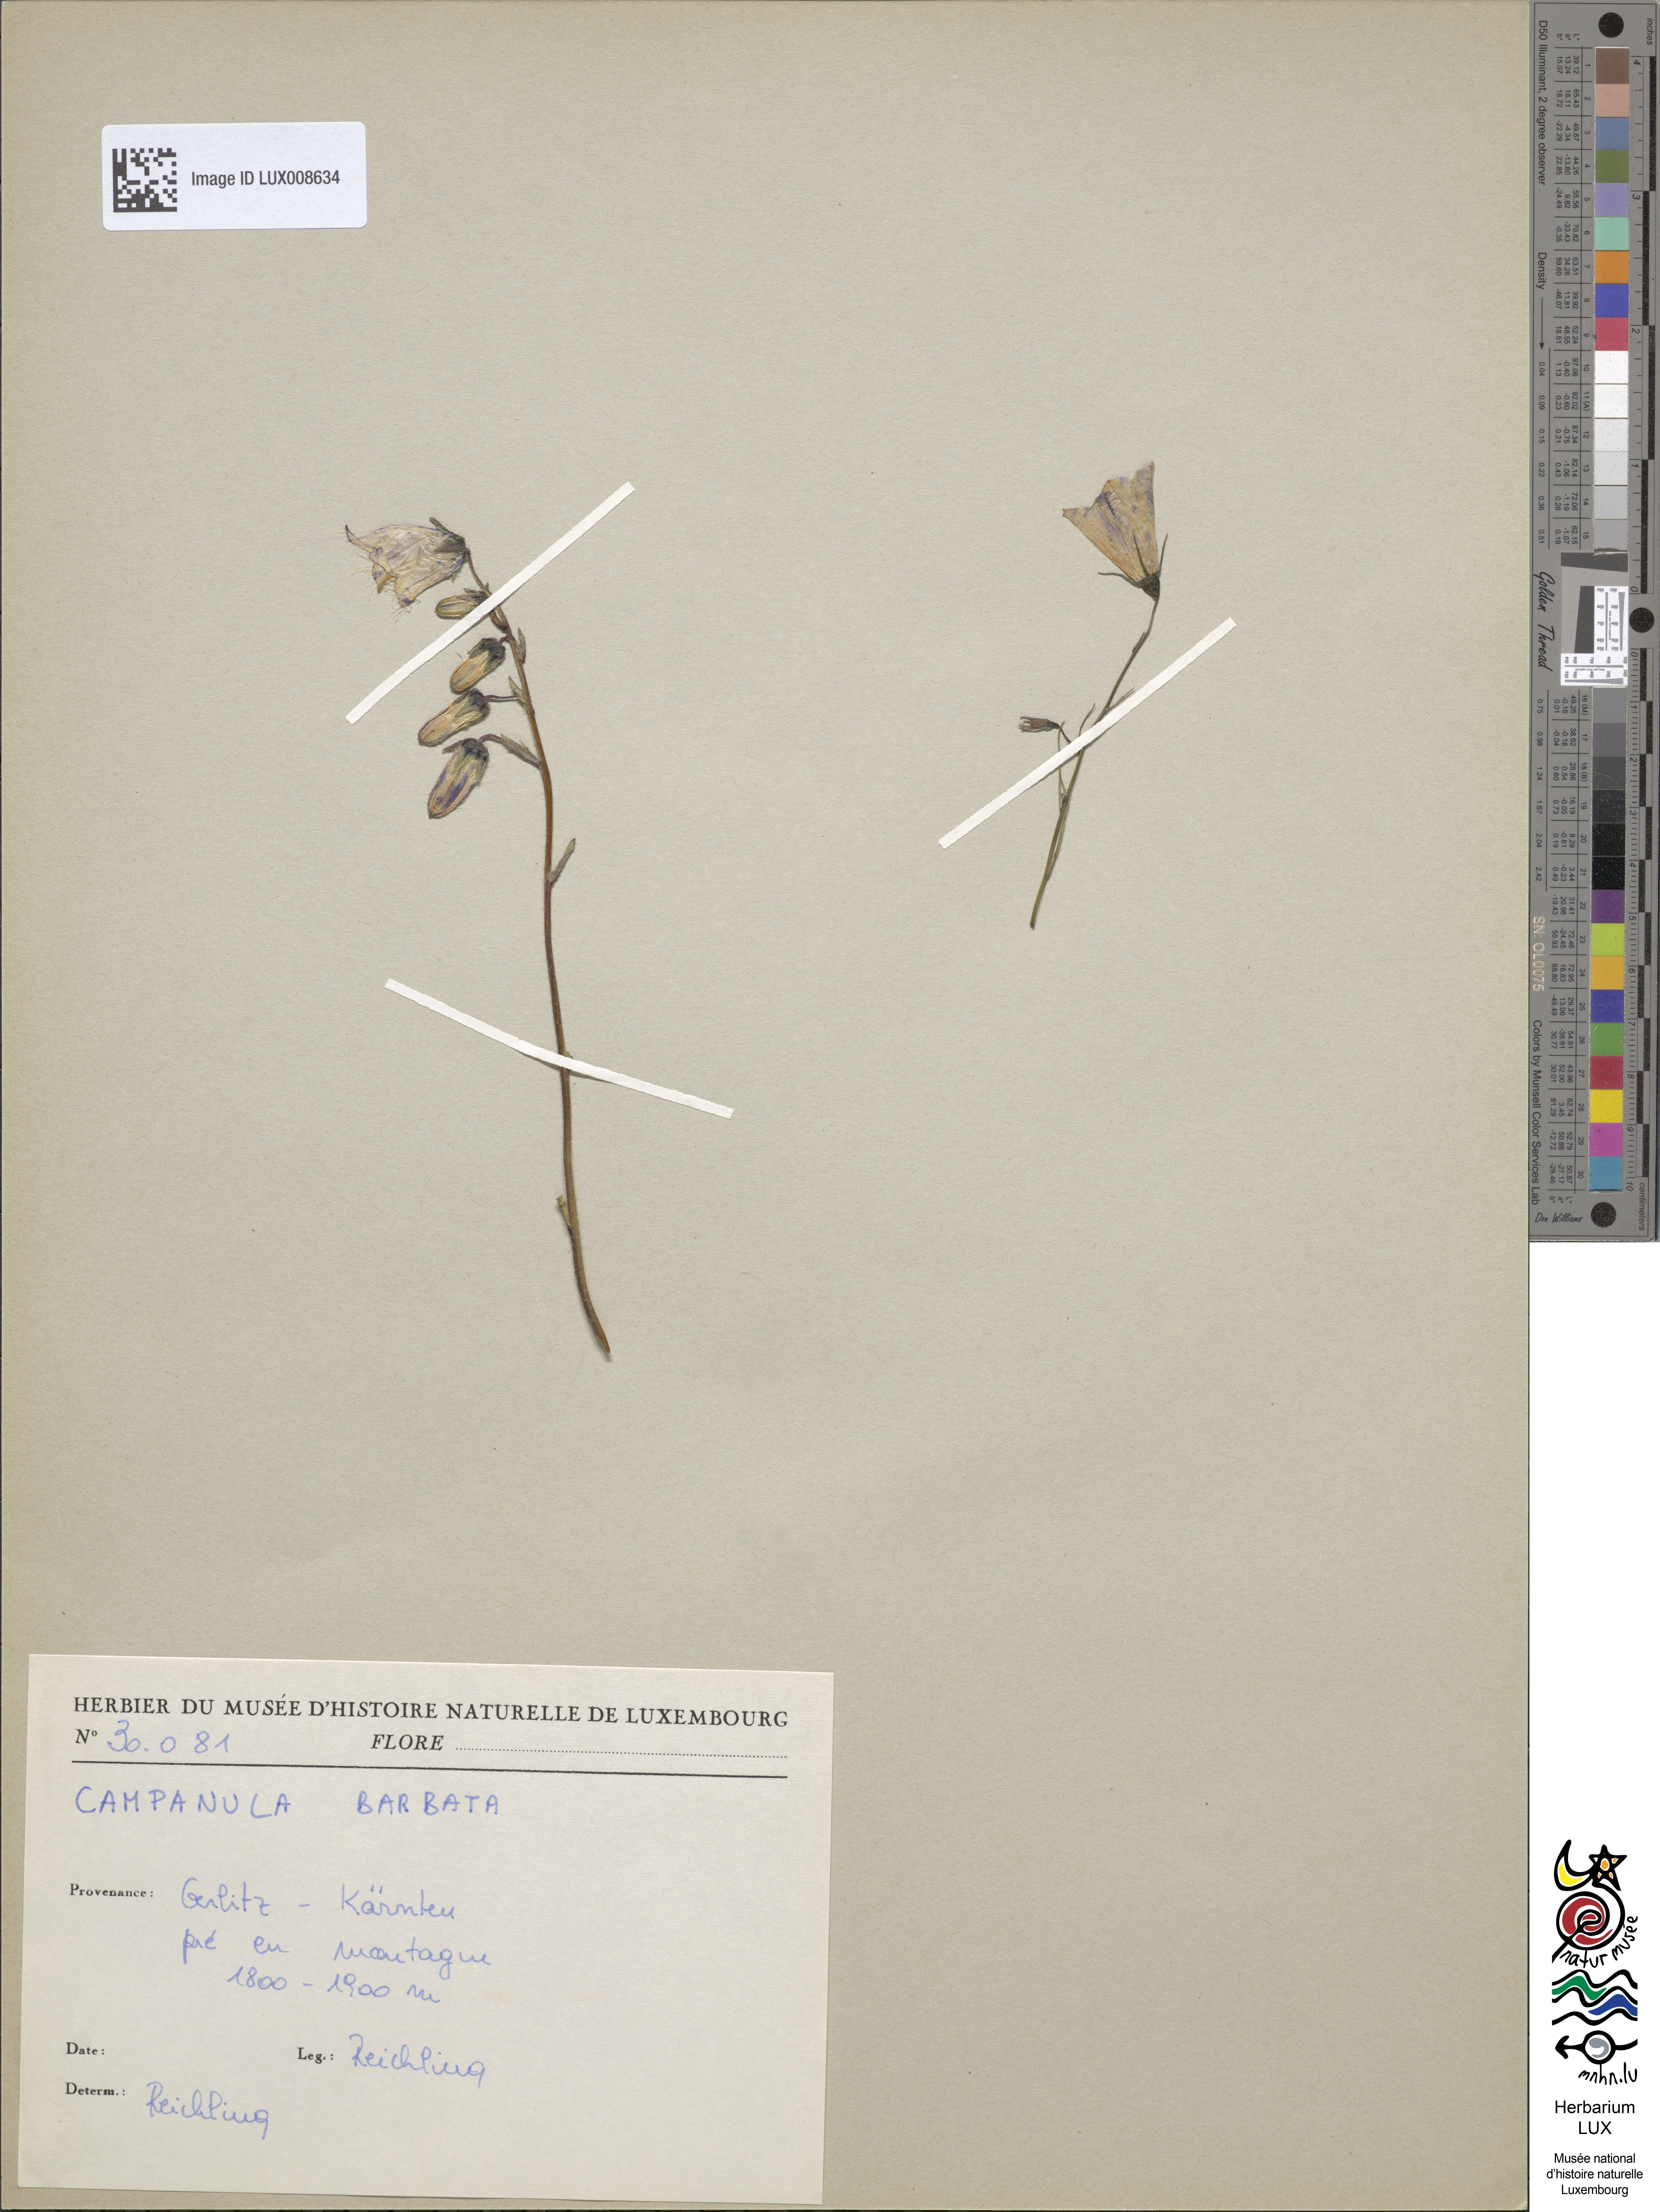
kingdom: Plantae
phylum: Tracheophyta
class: Magnoliopsida
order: Asterales
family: Campanulaceae
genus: Campanula
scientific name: Campanula barbata
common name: Bearded bellflower
